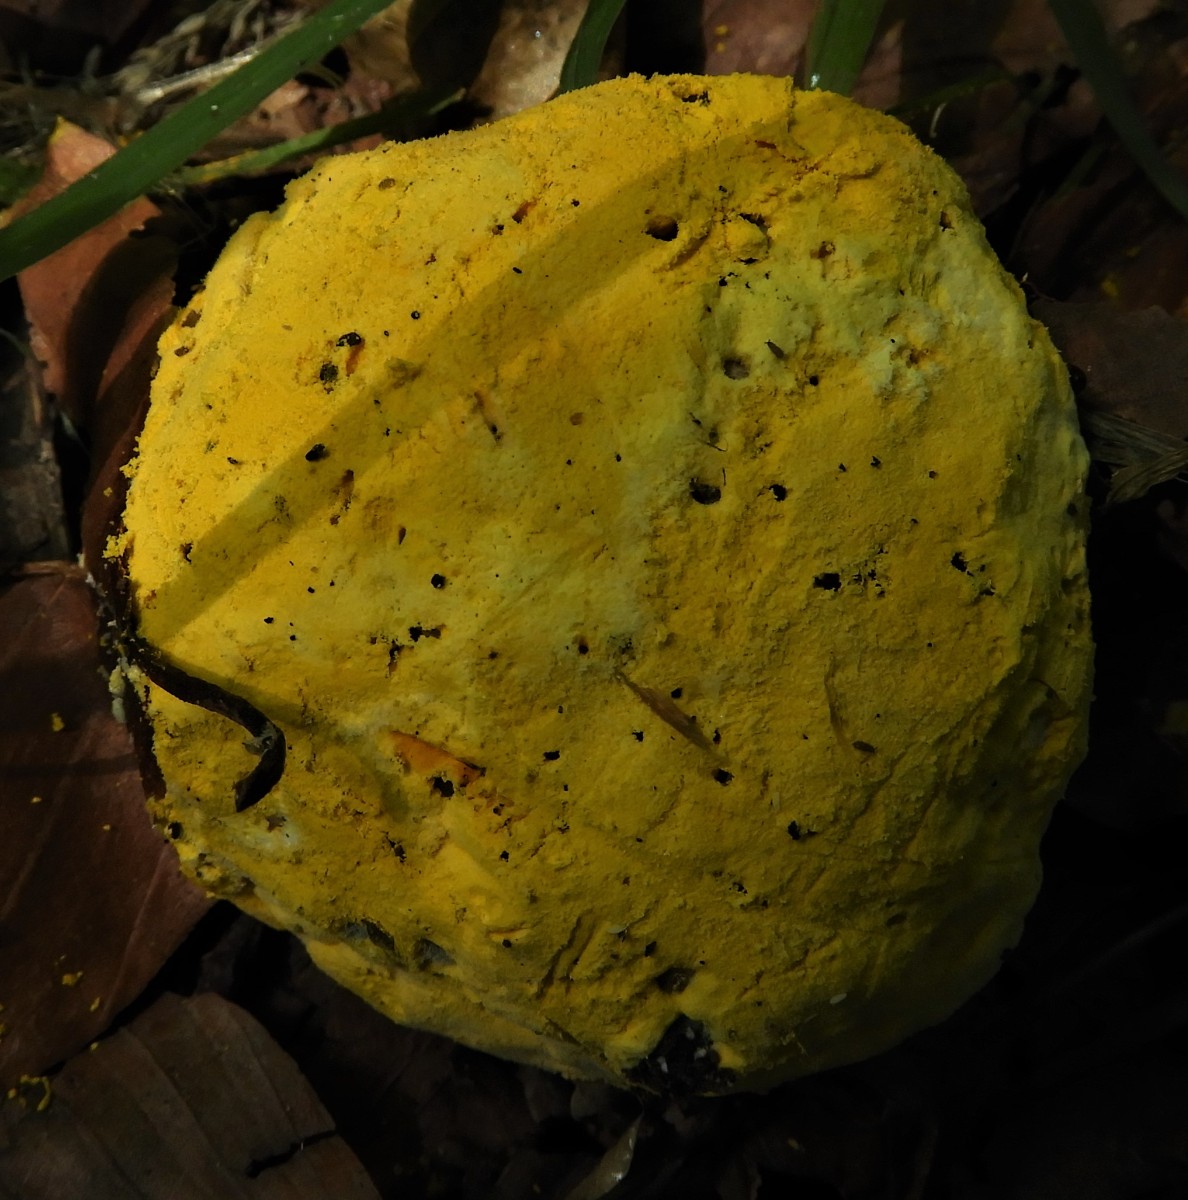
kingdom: Fungi
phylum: Ascomycota
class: Sordariomycetes
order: Hypocreales
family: Hypocreaceae
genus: Hypomyces
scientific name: Hypomyces microspermus
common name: dværgrørhat-snylteskorpe
